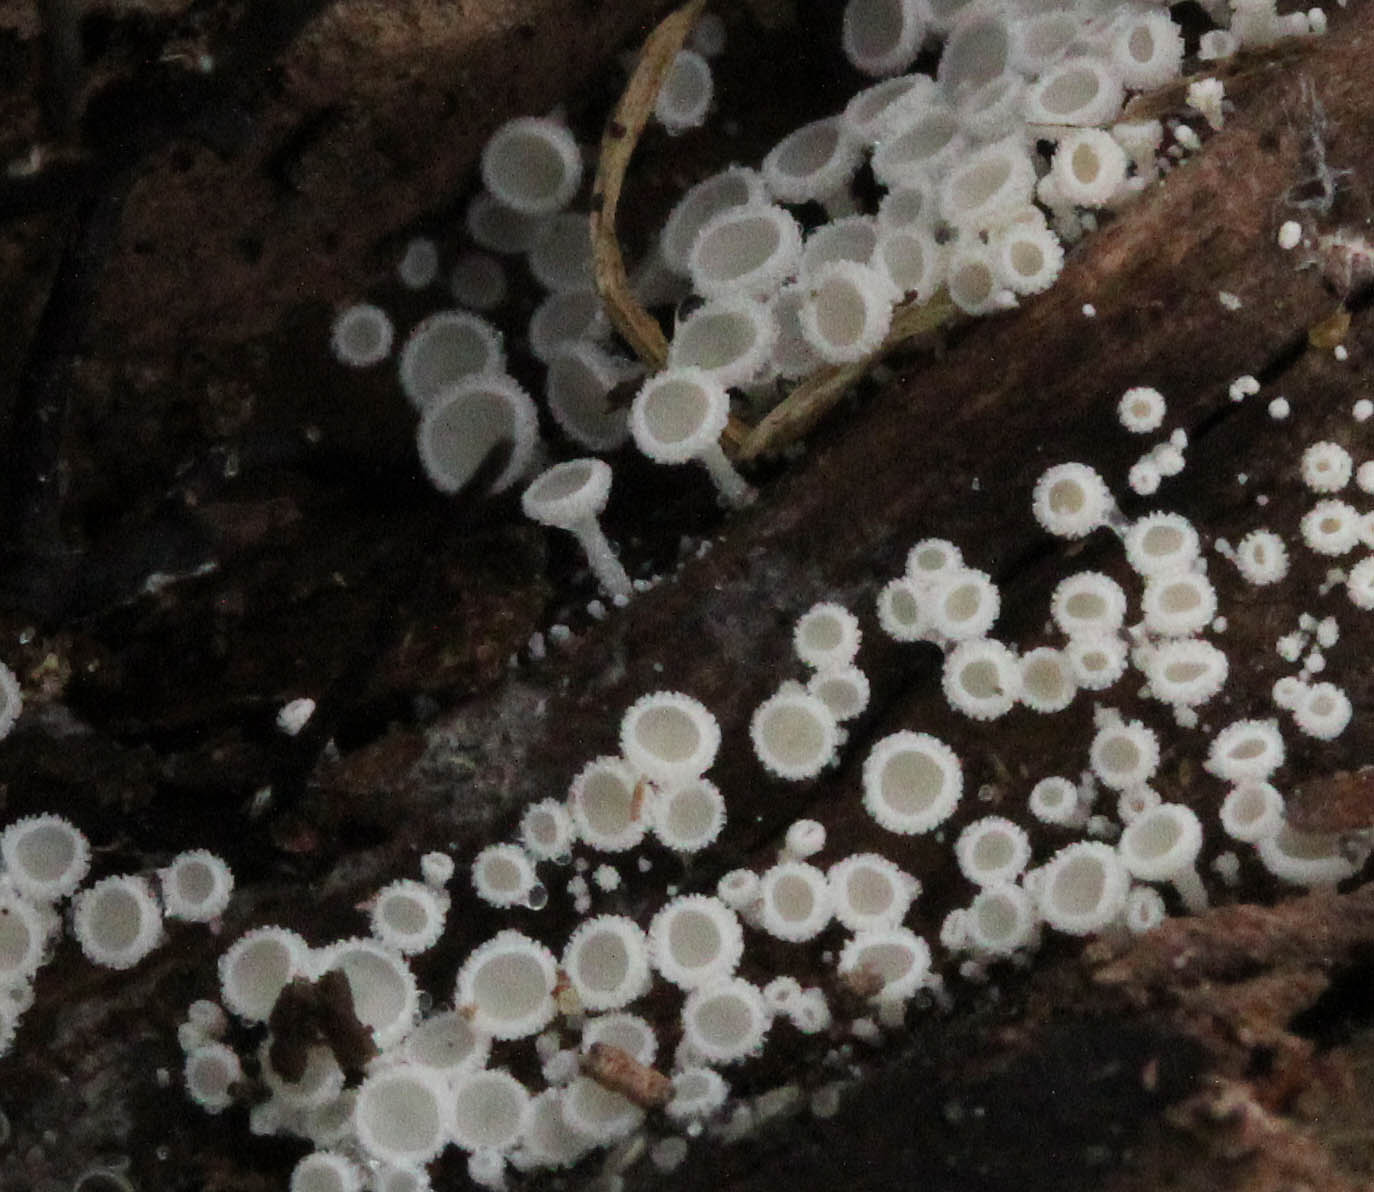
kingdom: Fungi
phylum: Ascomycota
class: Leotiomycetes
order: Helotiales
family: Lachnaceae
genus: Lachnum
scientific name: Lachnum subvirgineum
